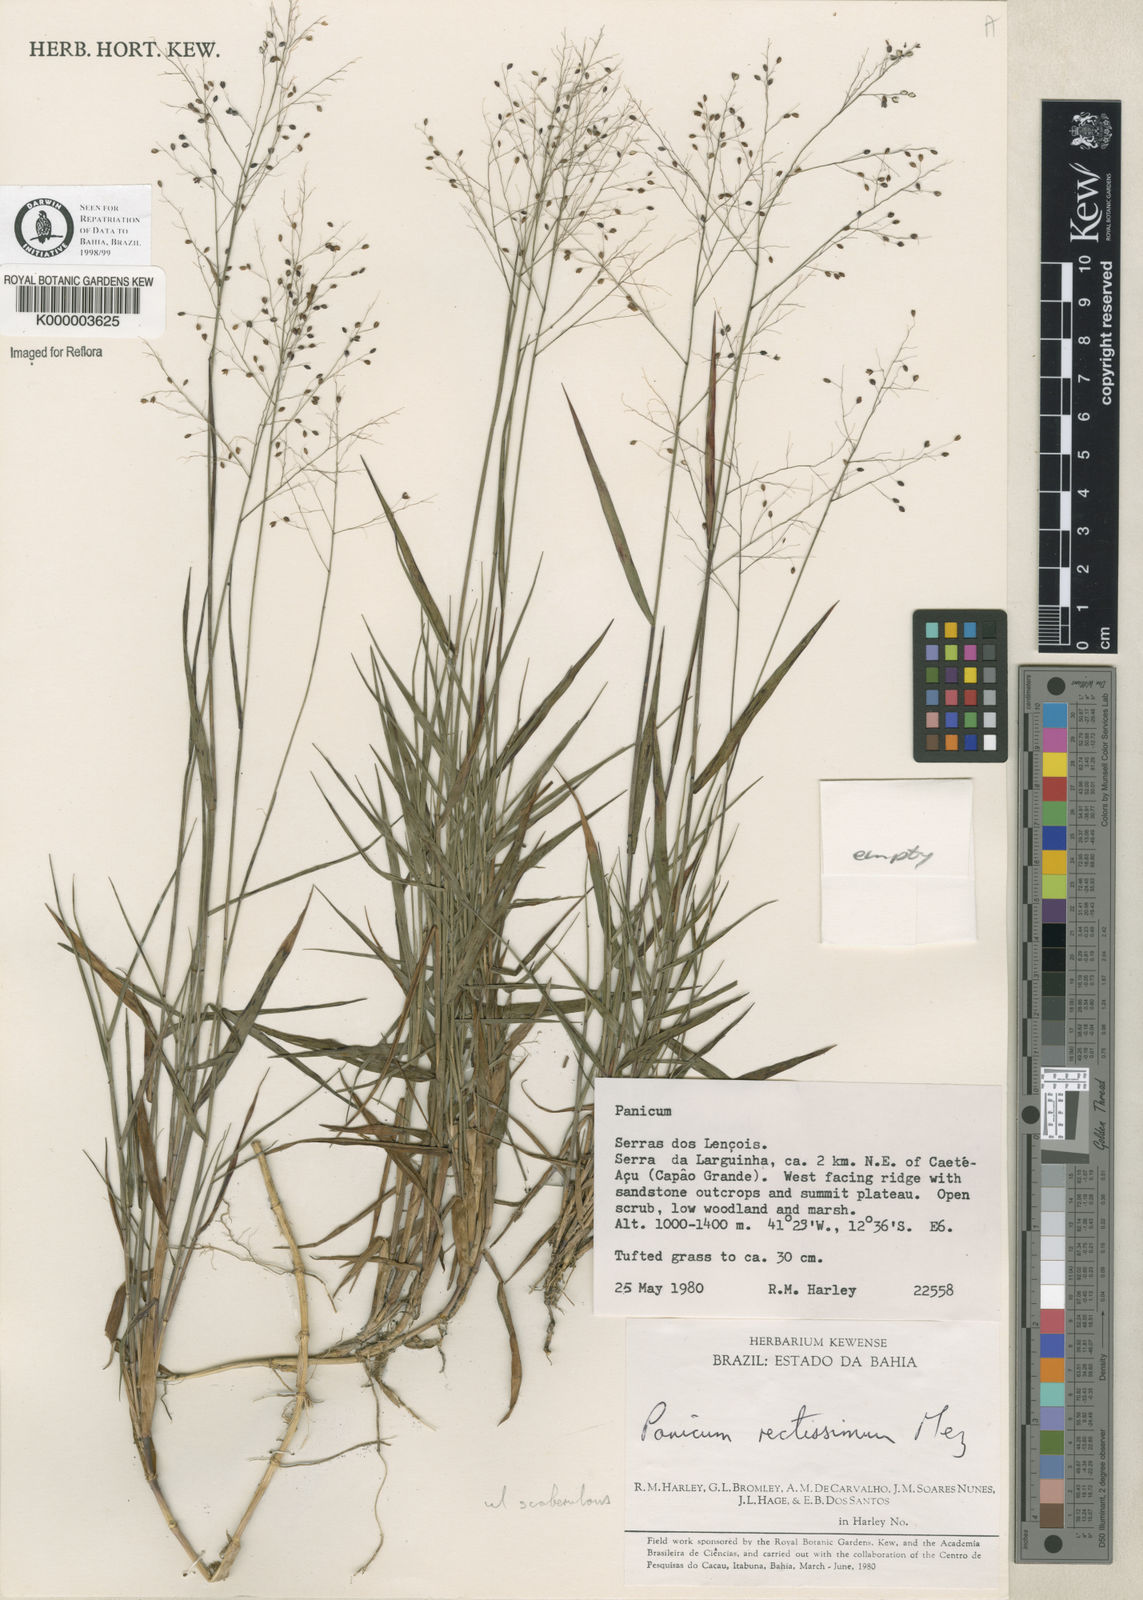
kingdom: Plantae
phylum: Tracheophyta
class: Liliopsida
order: Poales
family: Poaceae
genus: Trichanthecium
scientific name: Trichanthecium wettsteinii
